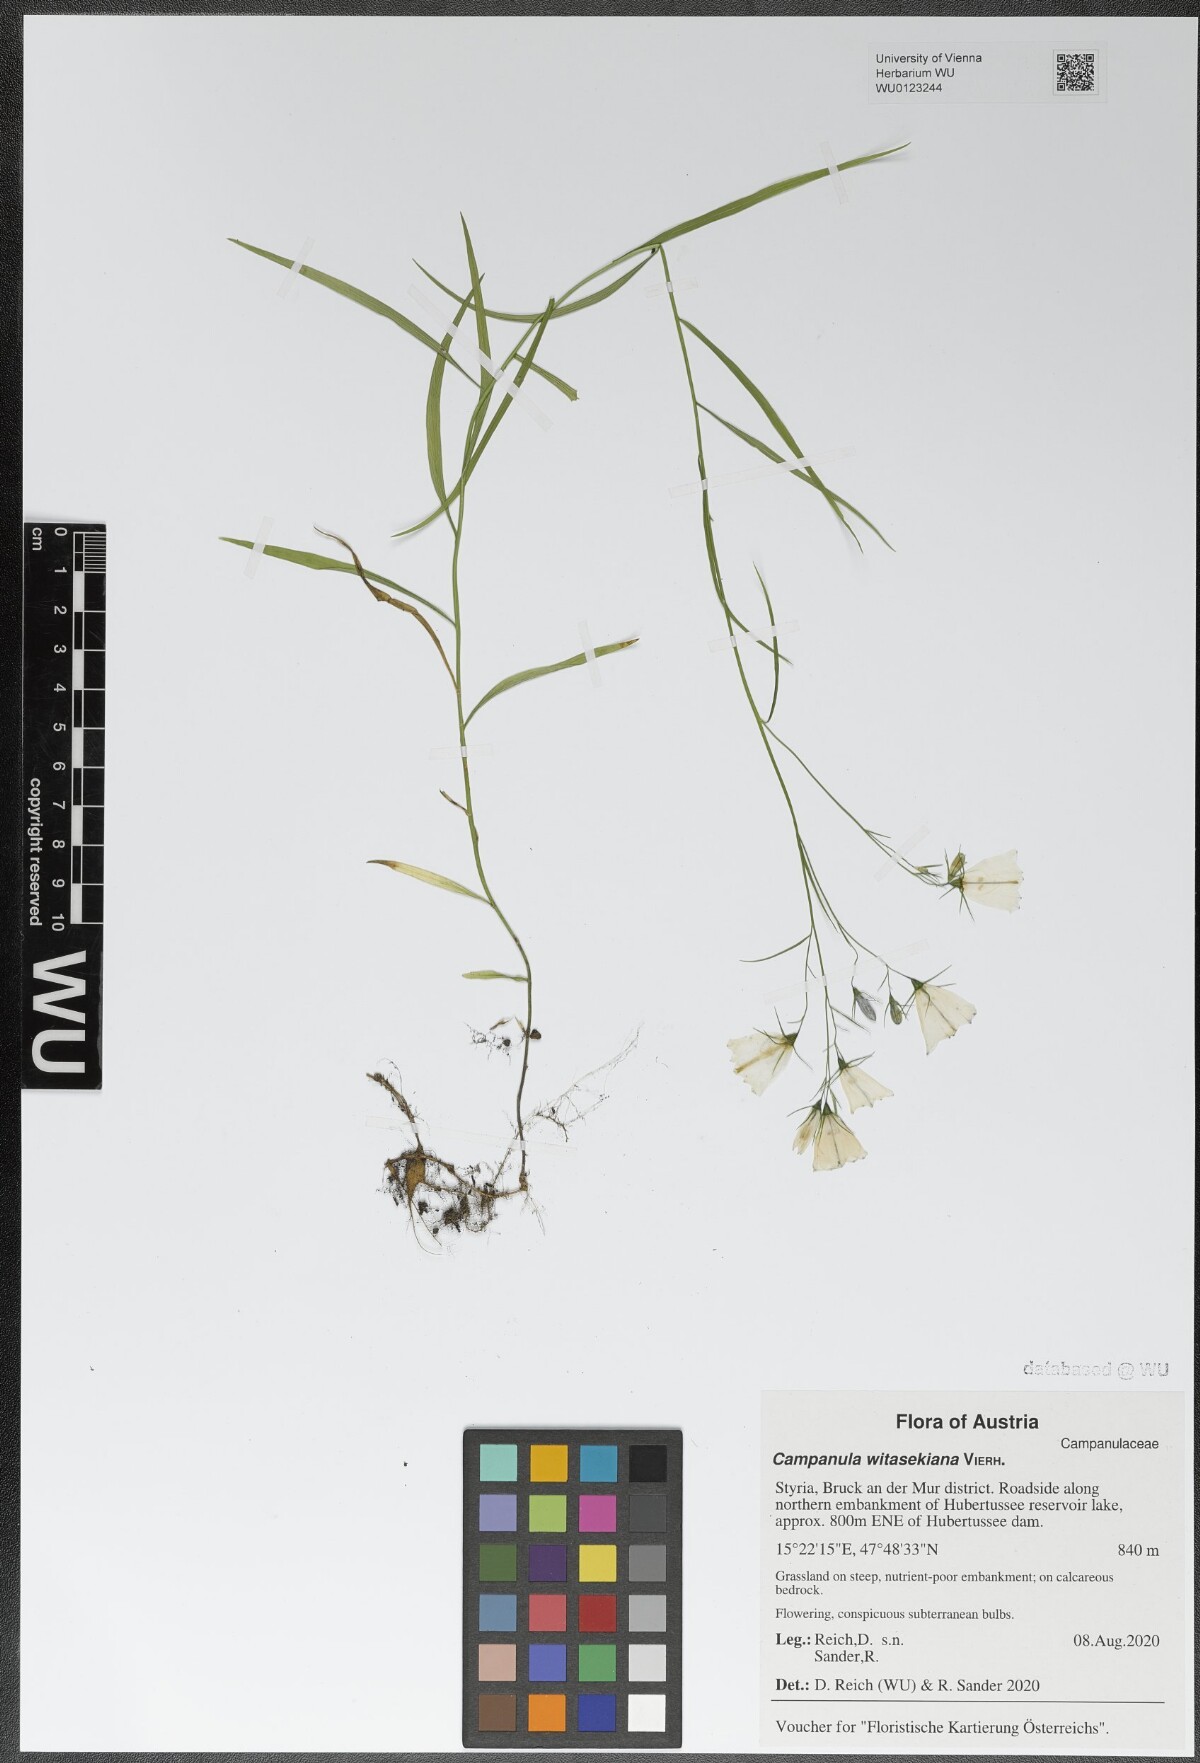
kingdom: Plantae
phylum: Tracheophyta
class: Magnoliopsida
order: Asterales
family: Campanulaceae
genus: Campanula
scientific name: Campanula witasekiana
